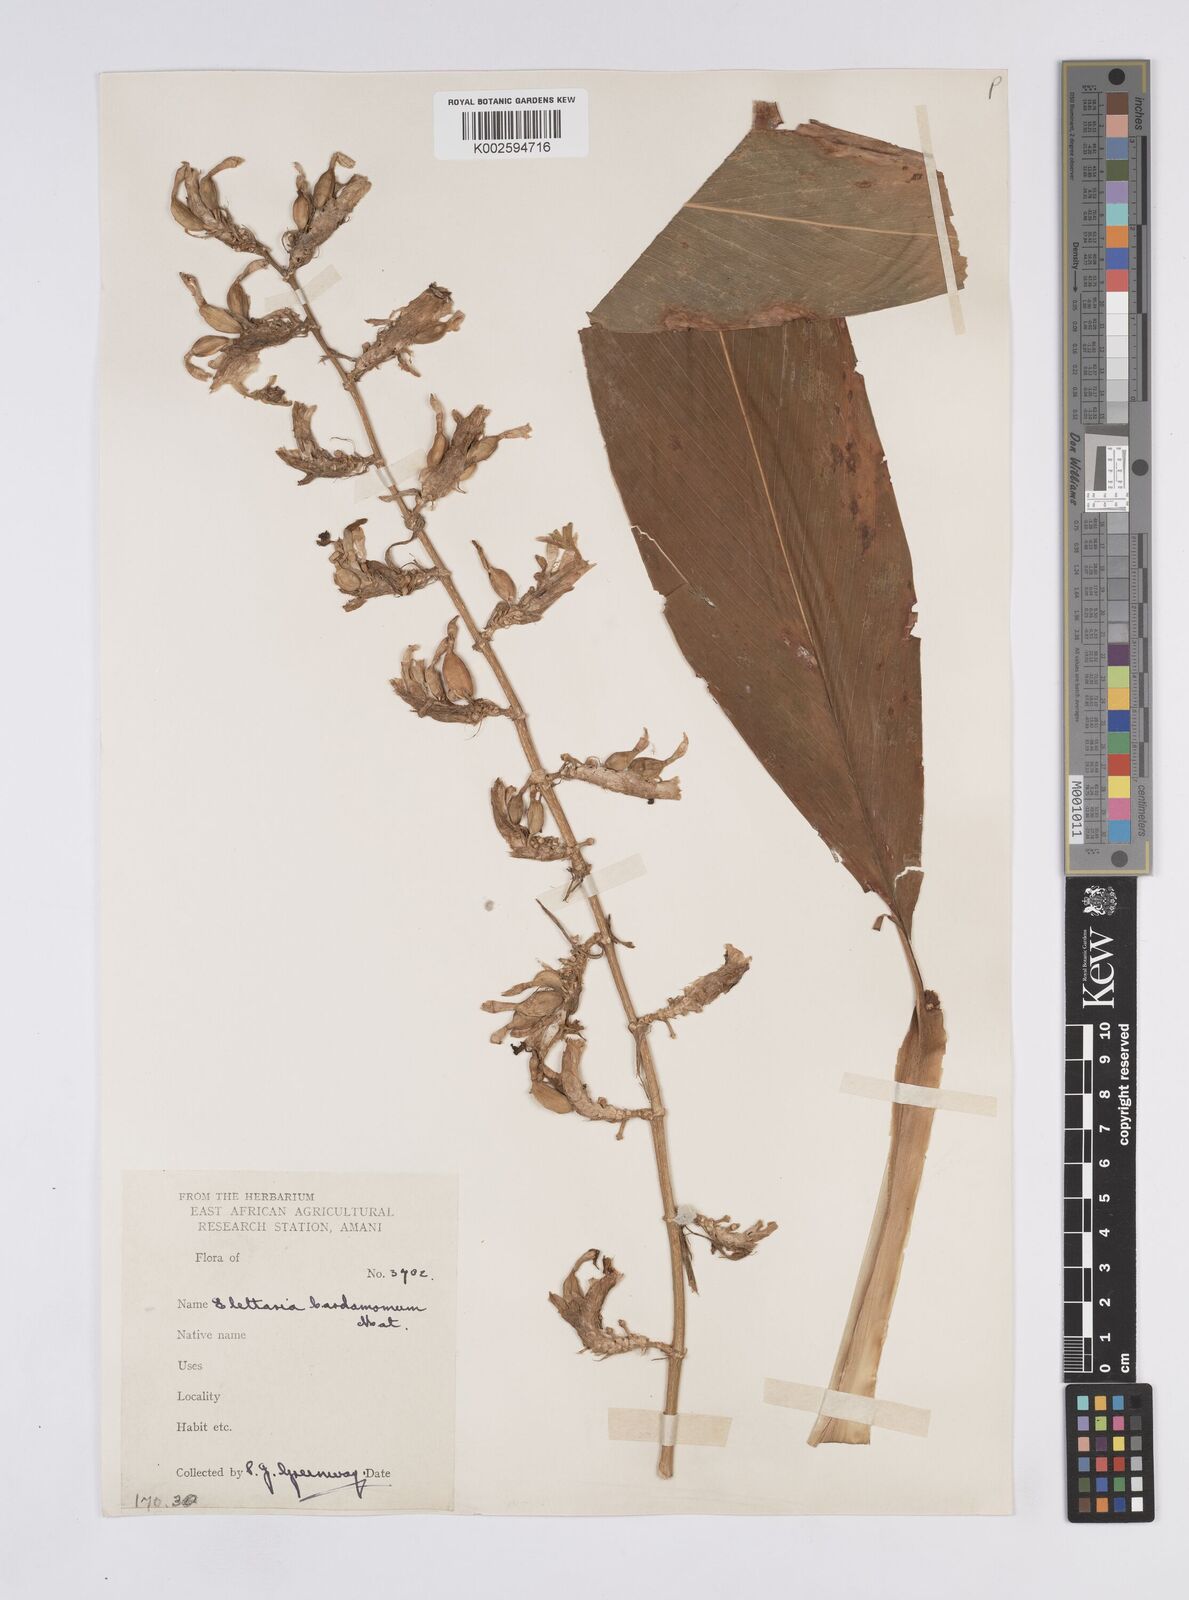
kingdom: Plantae
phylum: Tracheophyta
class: Liliopsida
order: Zingiberales
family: Zingiberaceae
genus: Elettaria
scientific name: Elettaria cardamomum
